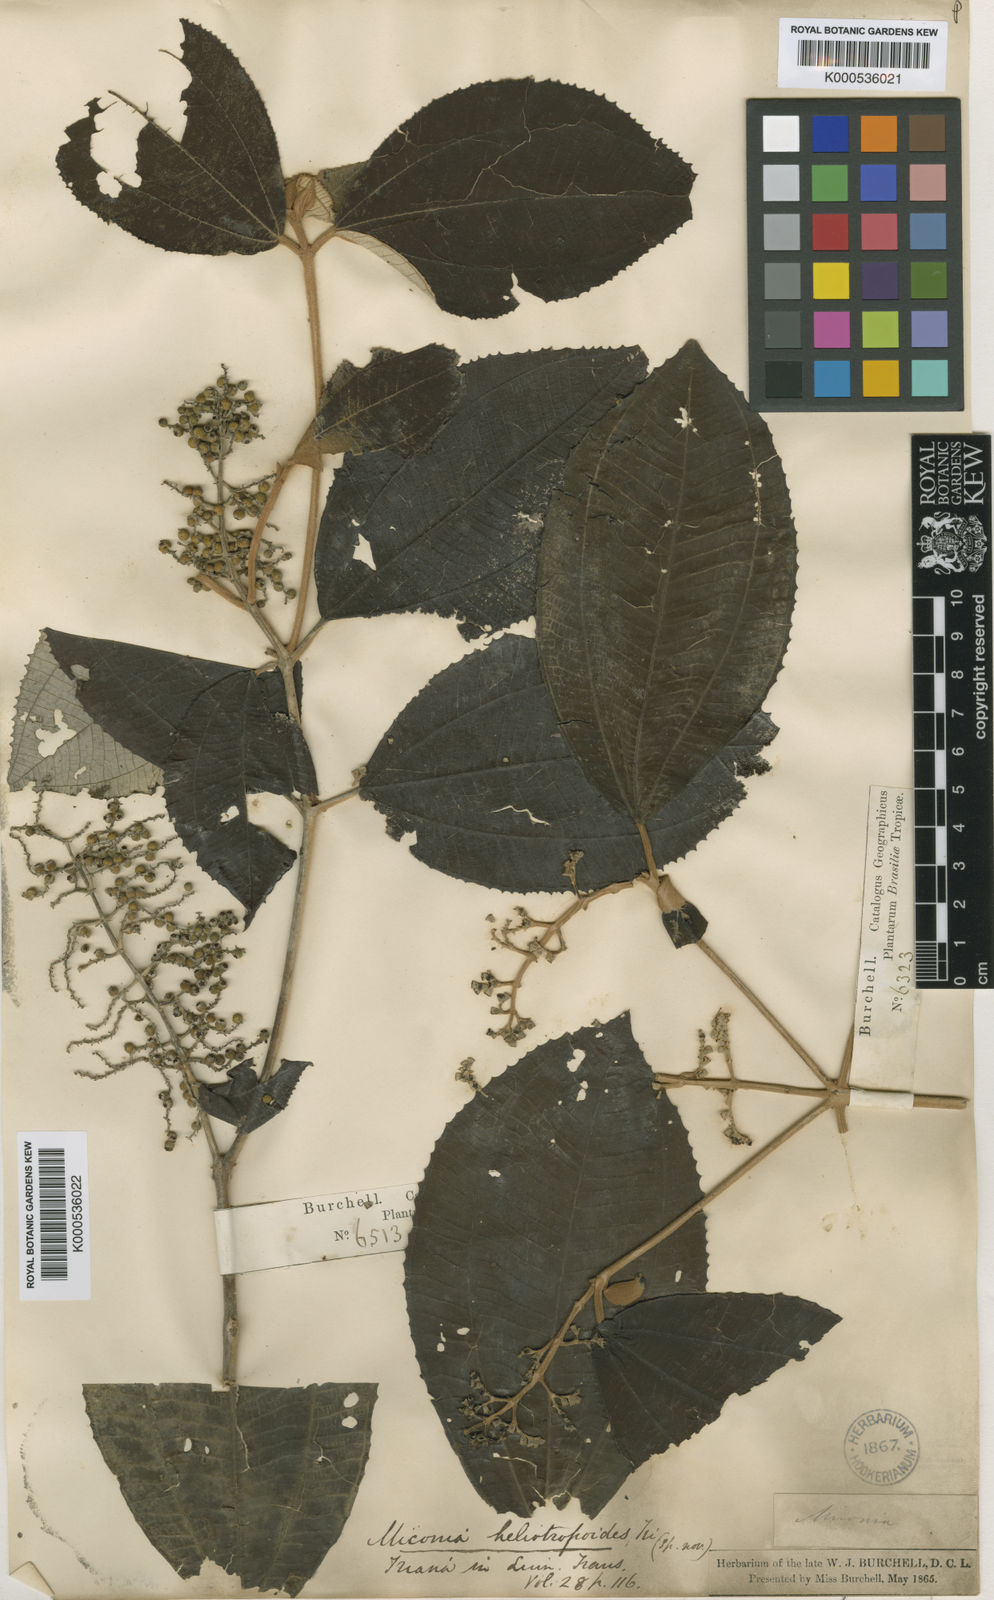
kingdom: Plantae
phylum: Tracheophyta
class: Magnoliopsida
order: Myrtales
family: Melastomataceae
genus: Miconia
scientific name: Miconia heliotropoides
